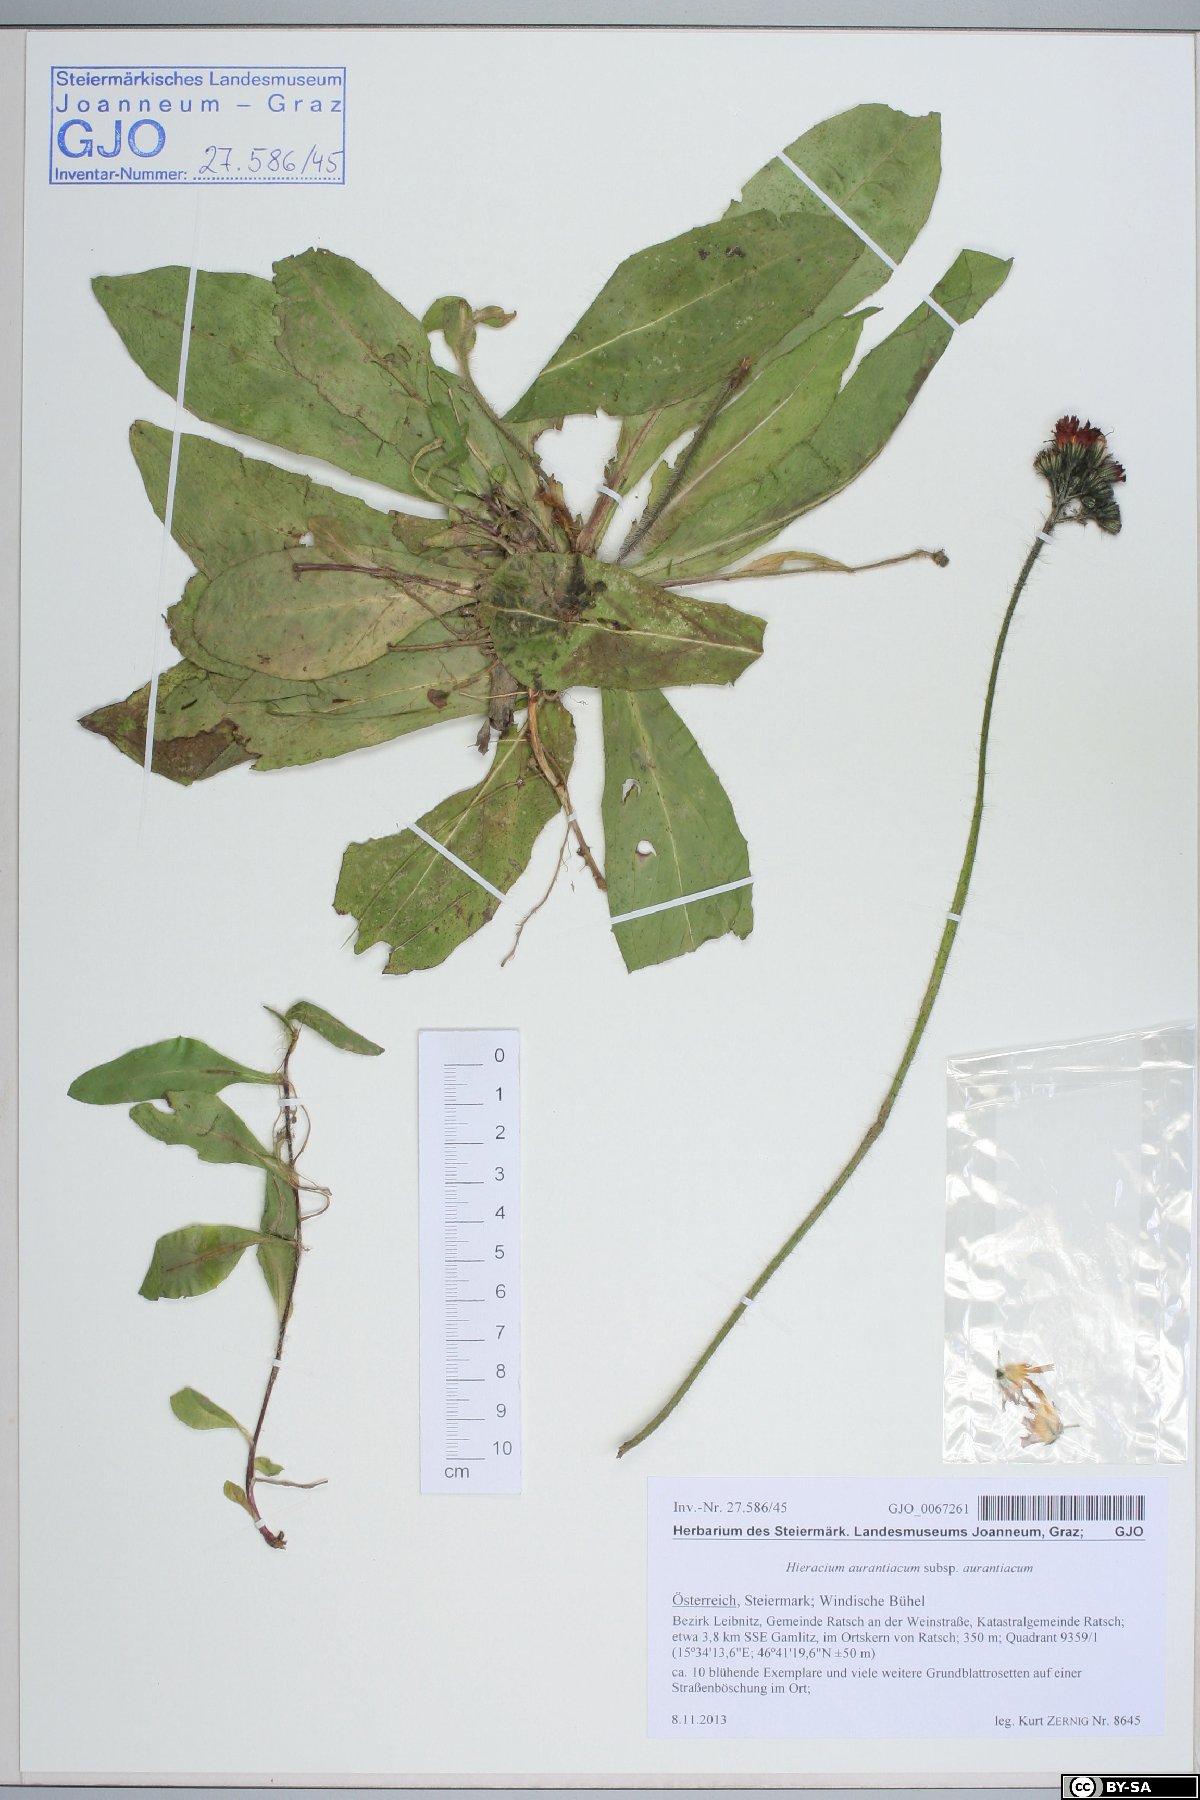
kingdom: Plantae
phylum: Tracheophyta
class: Magnoliopsida
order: Asterales
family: Asteraceae
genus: Pilosella
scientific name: Pilosella aurantiaca
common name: Fox-and-cubs
